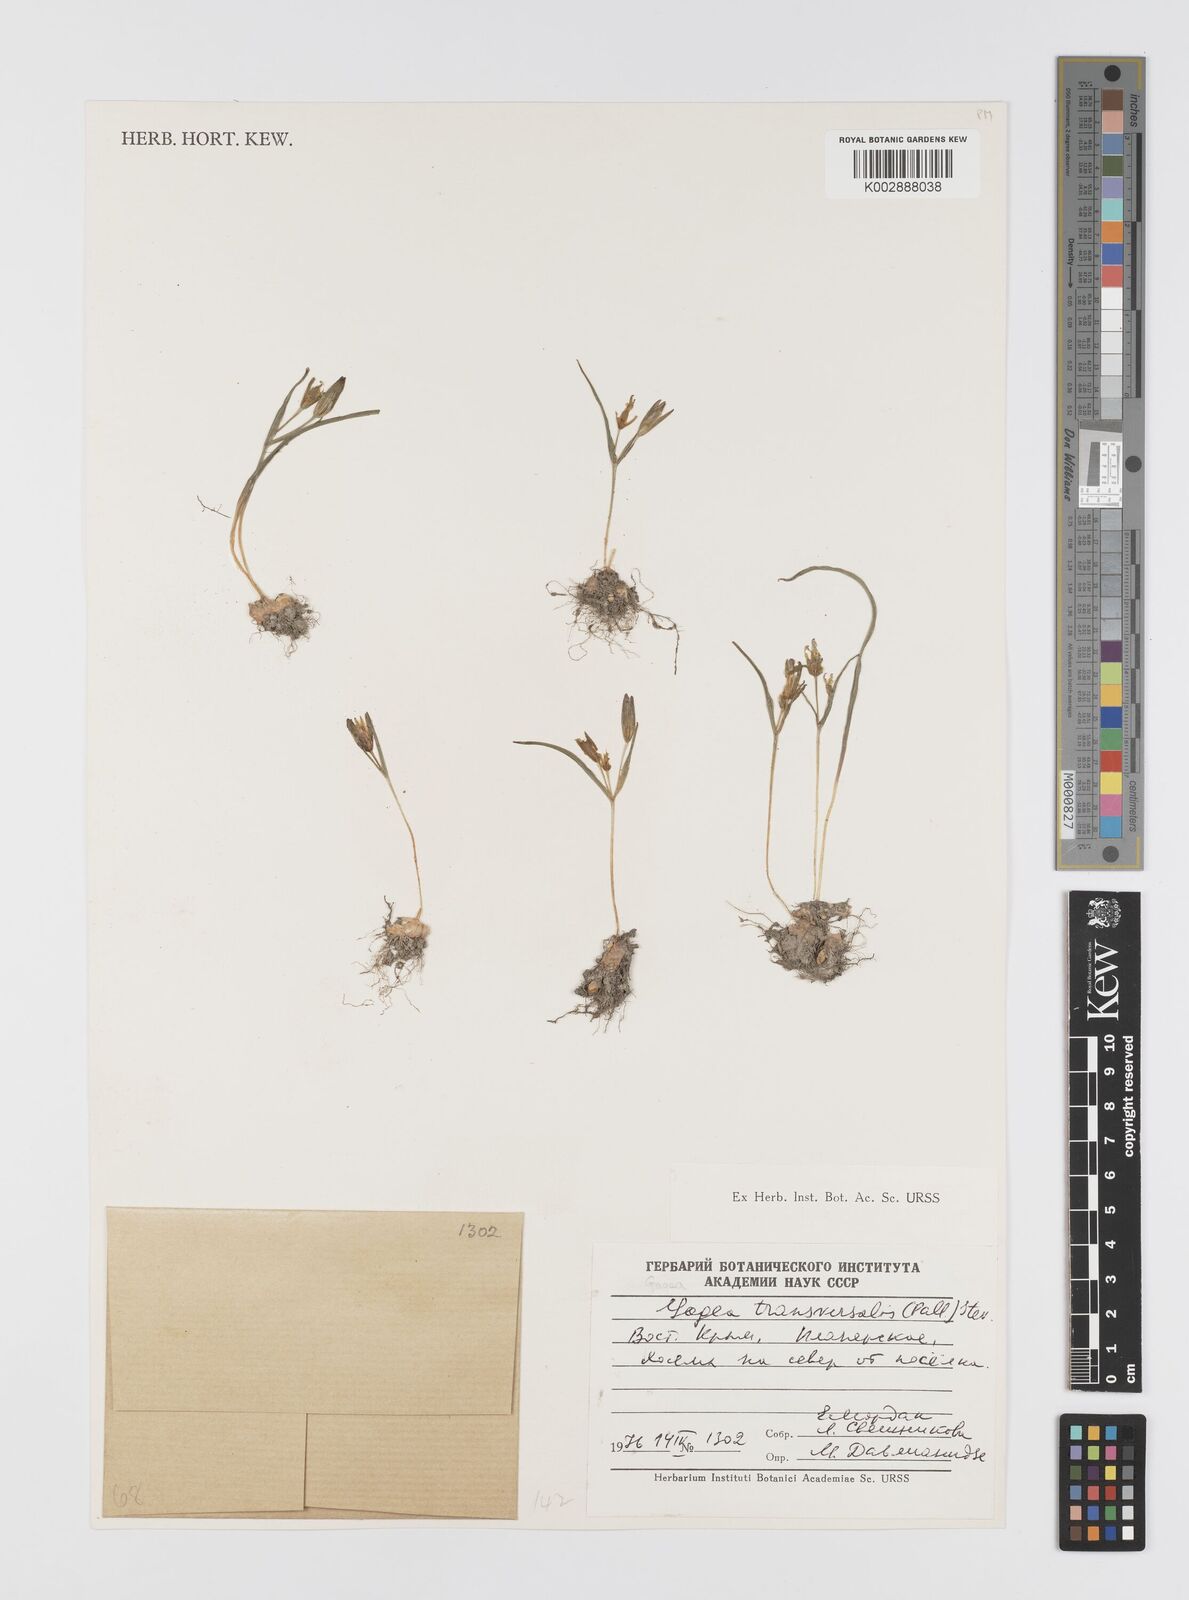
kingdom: Plantae
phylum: Tracheophyta
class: Liliopsida
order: Liliales
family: Liliaceae
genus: Gagea
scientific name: Gagea transversalis
